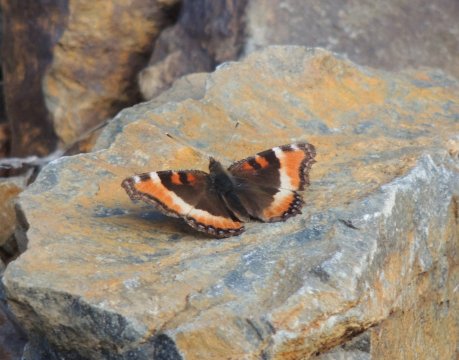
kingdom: Animalia
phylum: Arthropoda
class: Insecta
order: Lepidoptera
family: Nymphalidae
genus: Aglais
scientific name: Aglais milberti
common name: Milbert's Tortoiseshell
